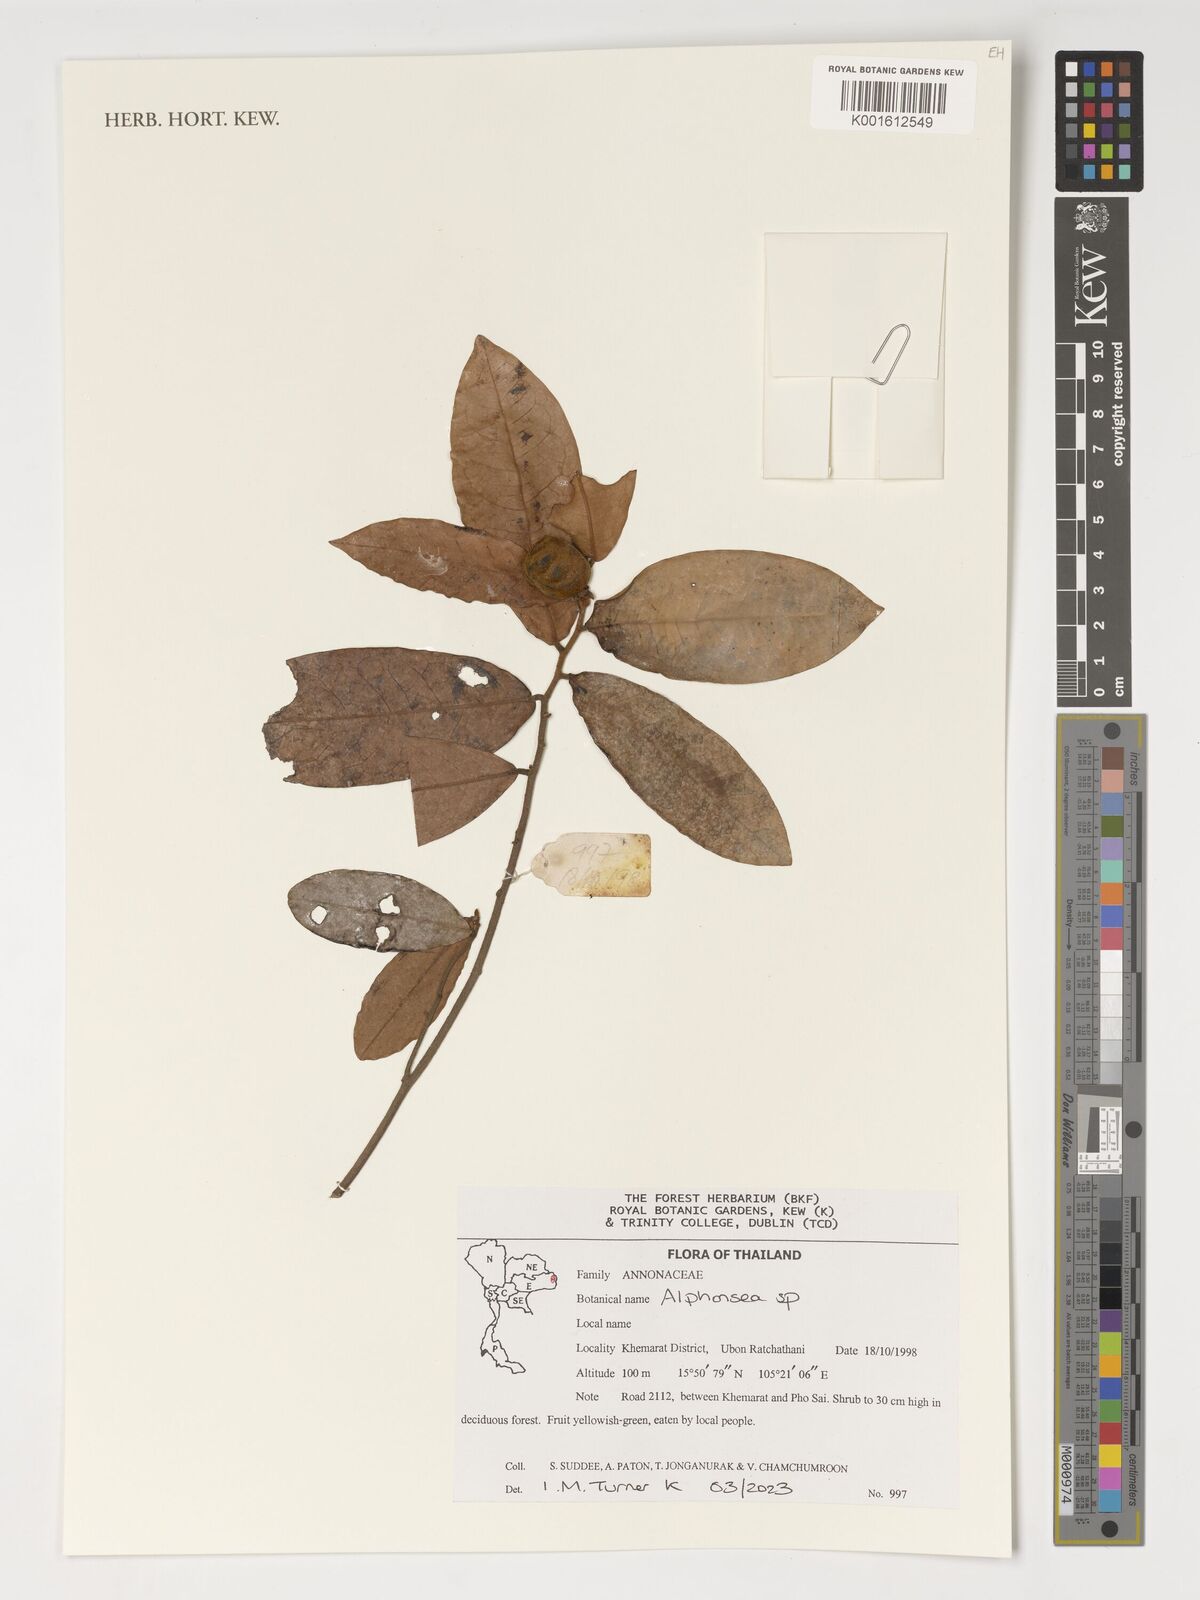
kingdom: Plantae
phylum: Tracheophyta
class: Magnoliopsida
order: Magnoliales
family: Annonaceae
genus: Alphonsea
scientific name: Alphonsea
